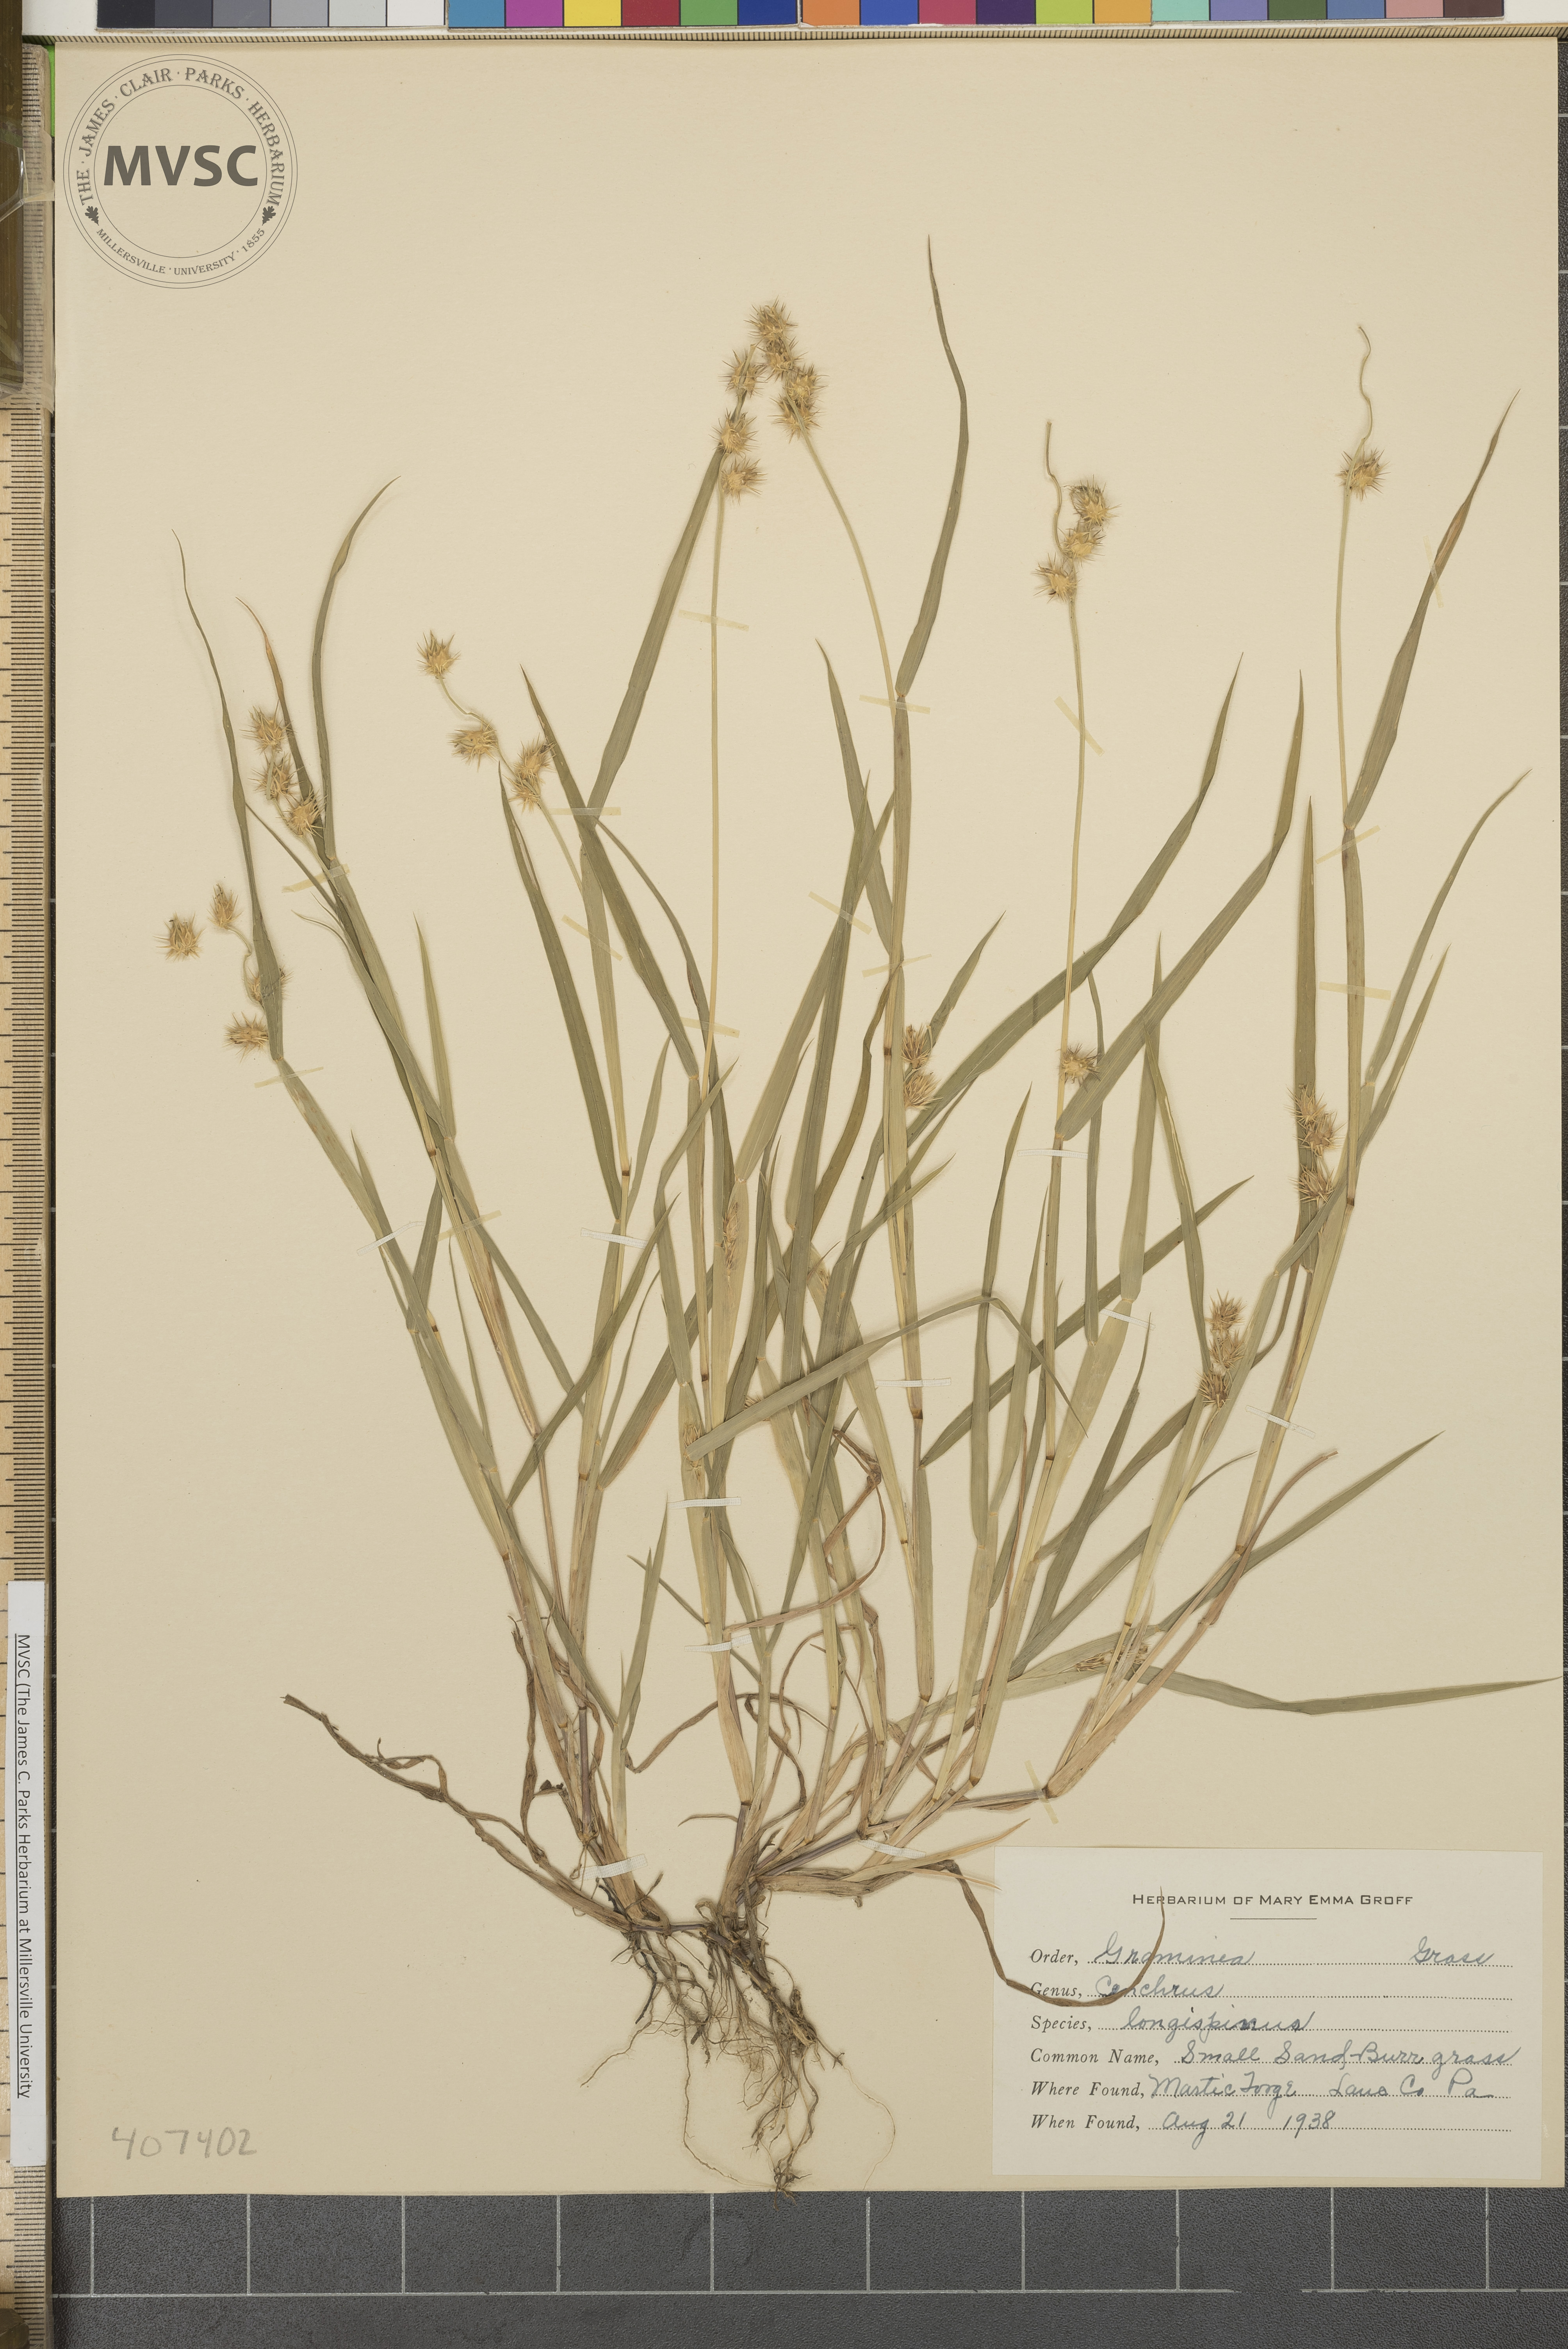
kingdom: Plantae
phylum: Tracheophyta
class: Liliopsida
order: Poales
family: Poaceae
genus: Cenchrus
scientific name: Cenchrus longispinus
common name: Mat sandbur
